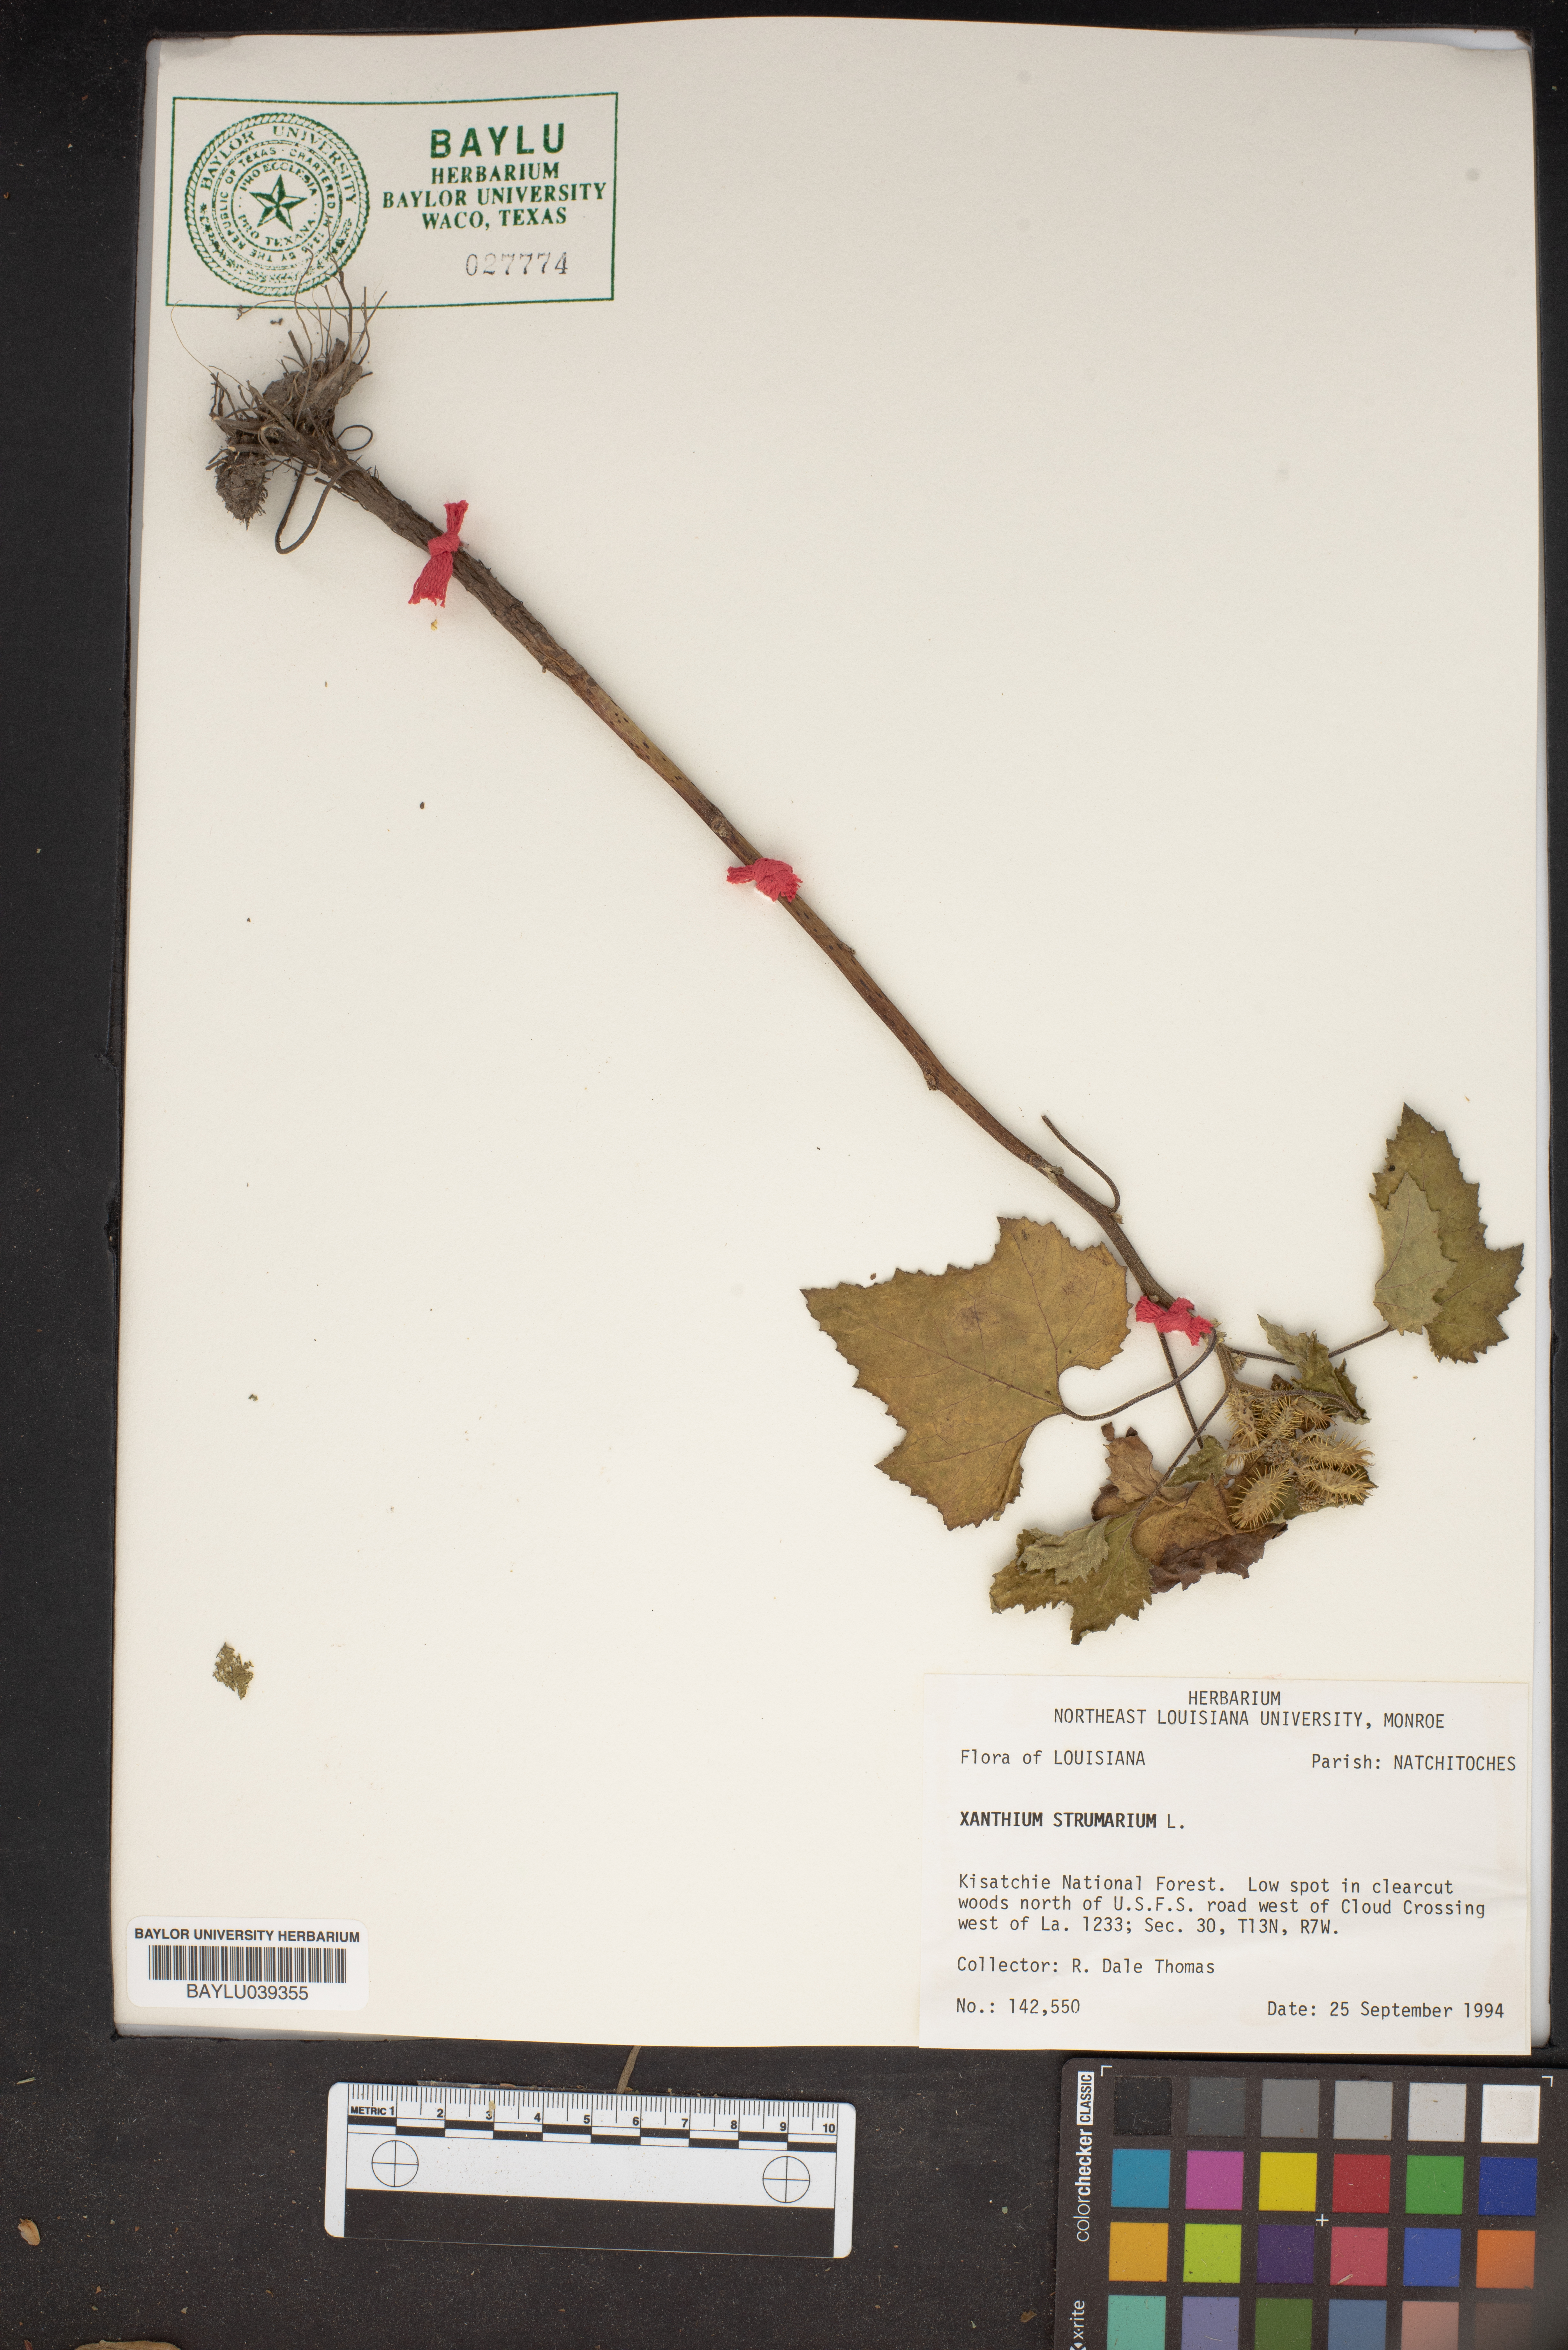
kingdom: Plantae
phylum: Tracheophyta
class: Magnoliopsida
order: Asterales
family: Asteraceae
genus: Xanthium
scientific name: Xanthium strumarium
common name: Rough cocklebur
